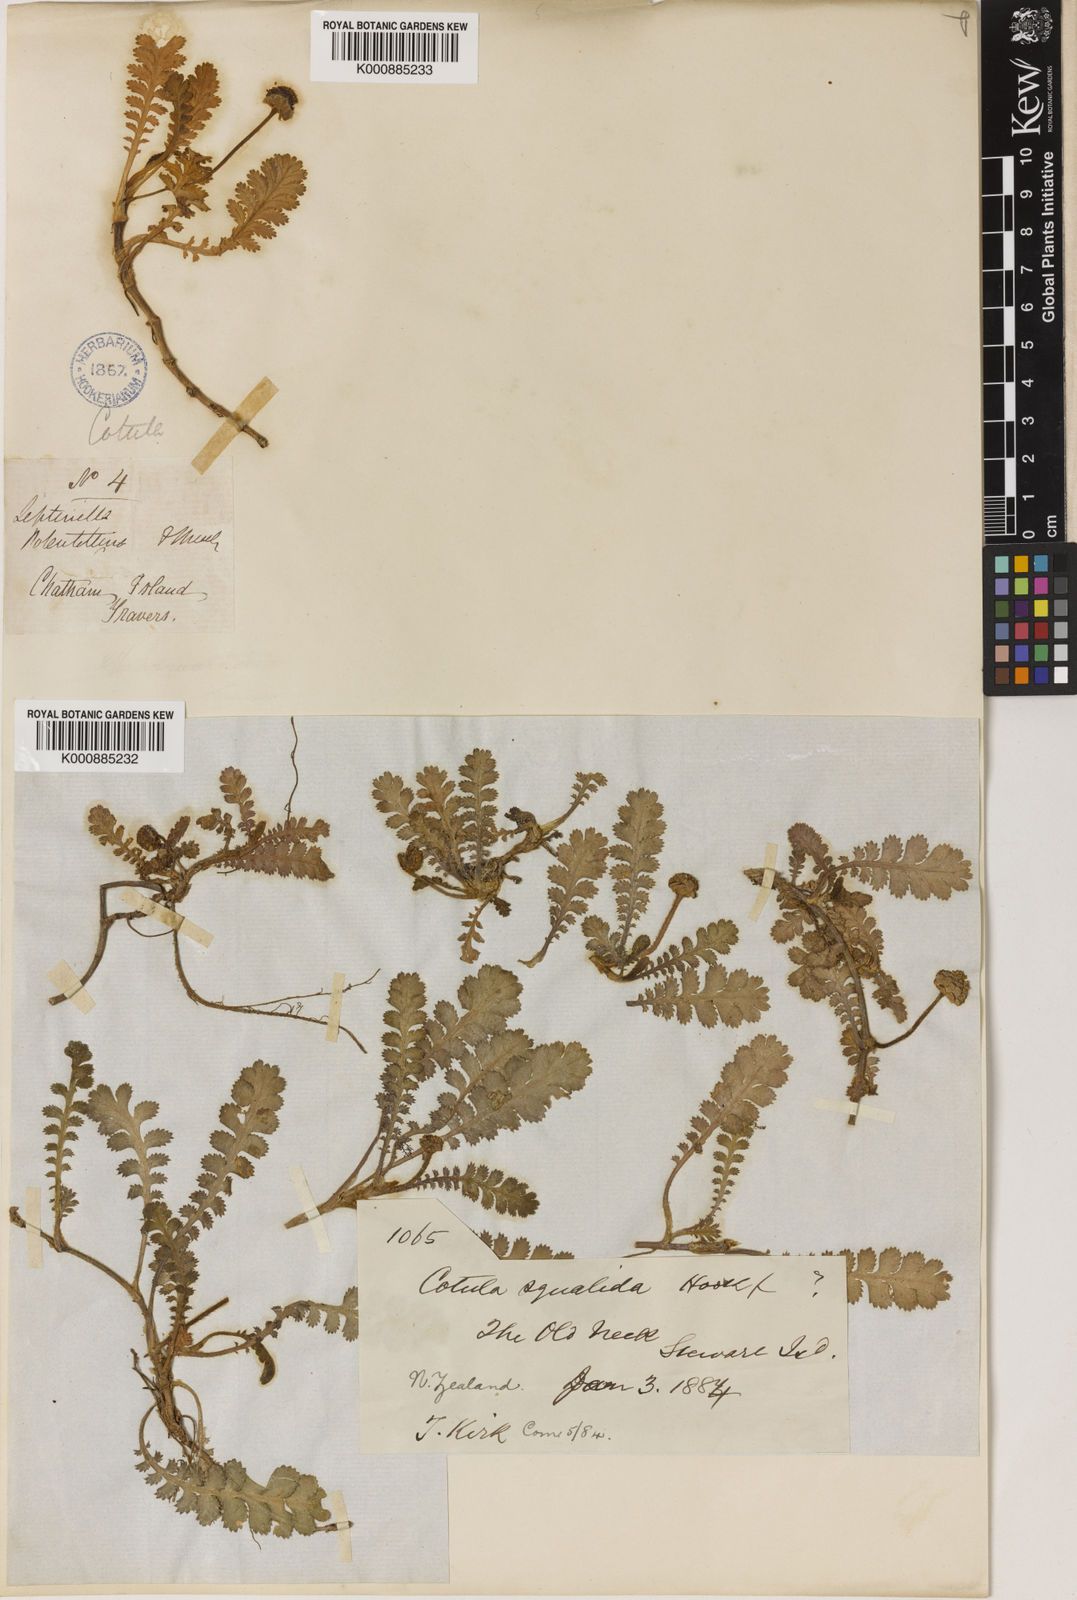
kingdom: Plantae
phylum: Tracheophyta
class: Magnoliopsida
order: Asterales
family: Asteraceae
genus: Leptinella
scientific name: Leptinella
